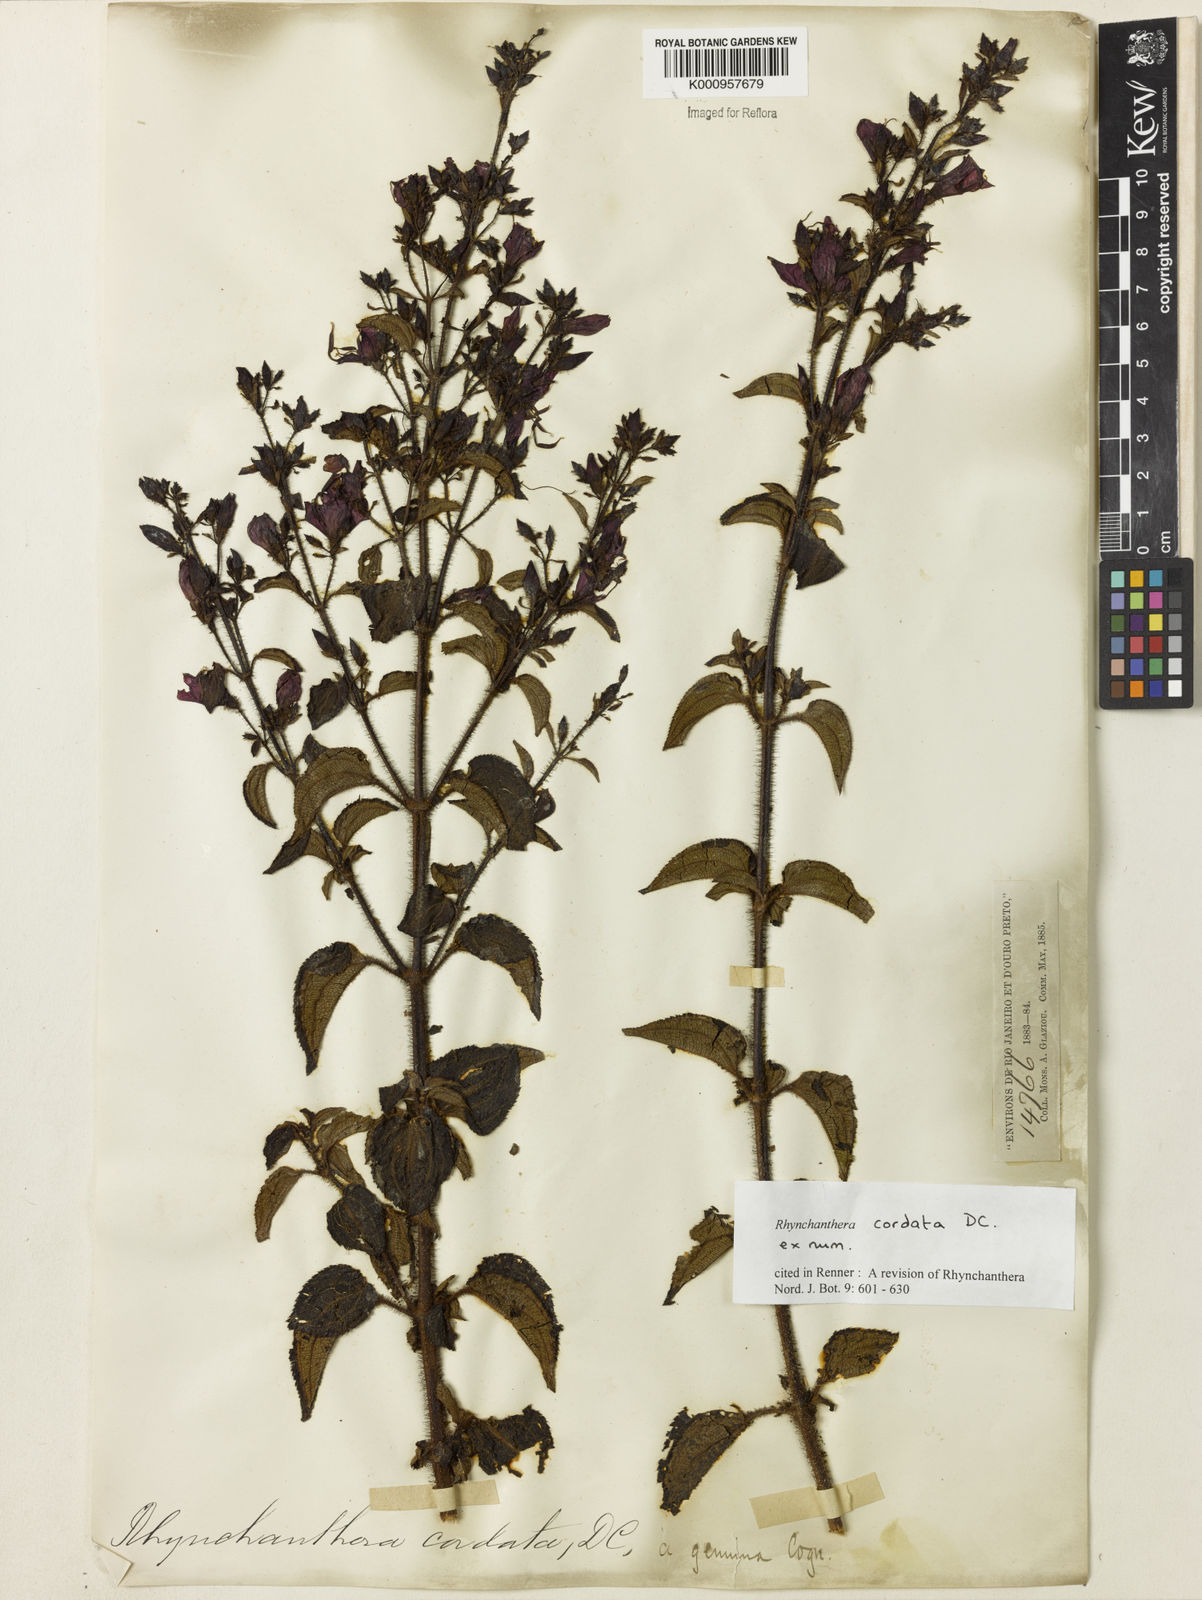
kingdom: Plantae
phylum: Tracheophyta
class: Magnoliopsida
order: Myrtales
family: Melastomataceae
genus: Rhynchanthera
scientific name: Rhynchanthera cordata
